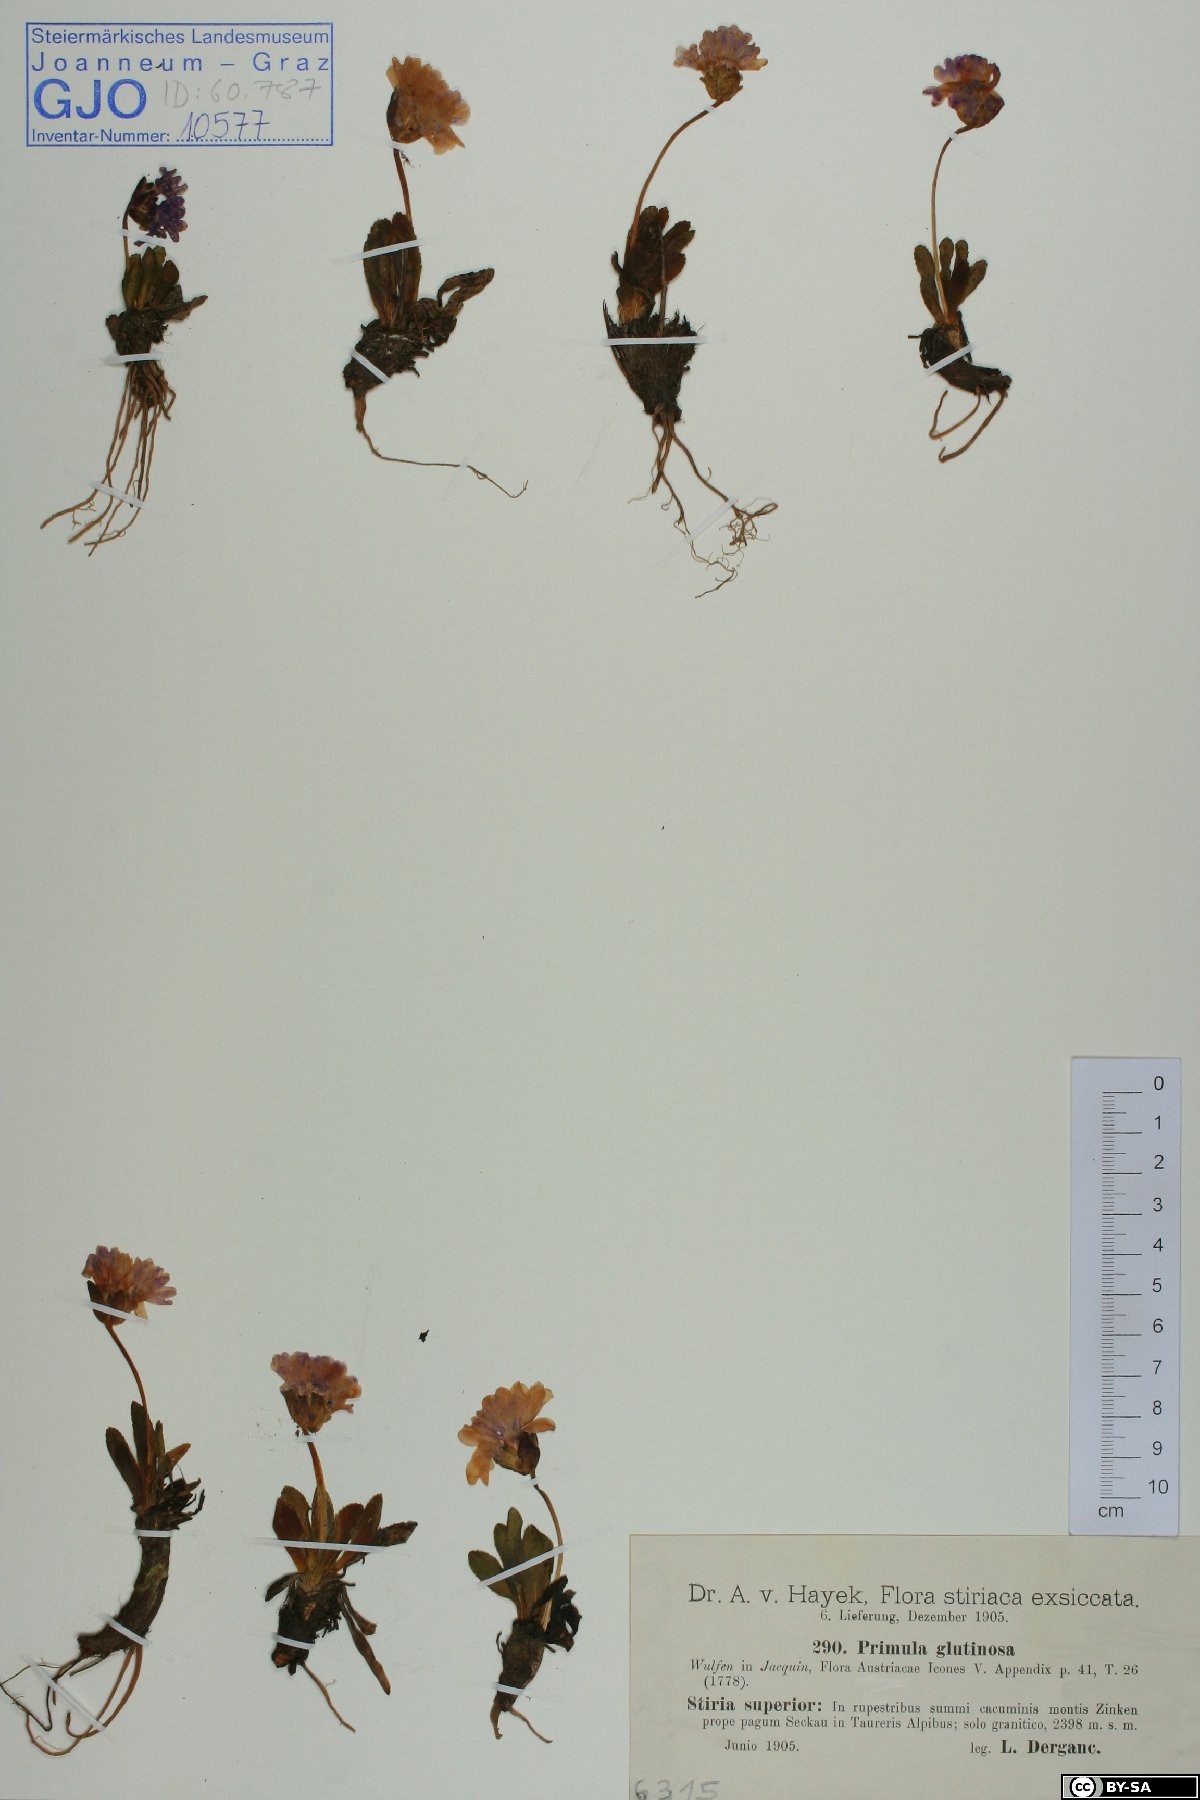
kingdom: Plantae
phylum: Tracheophyta
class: Magnoliopsida
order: Ericales
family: Primulaceae
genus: Primula
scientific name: Primula glutinosa
